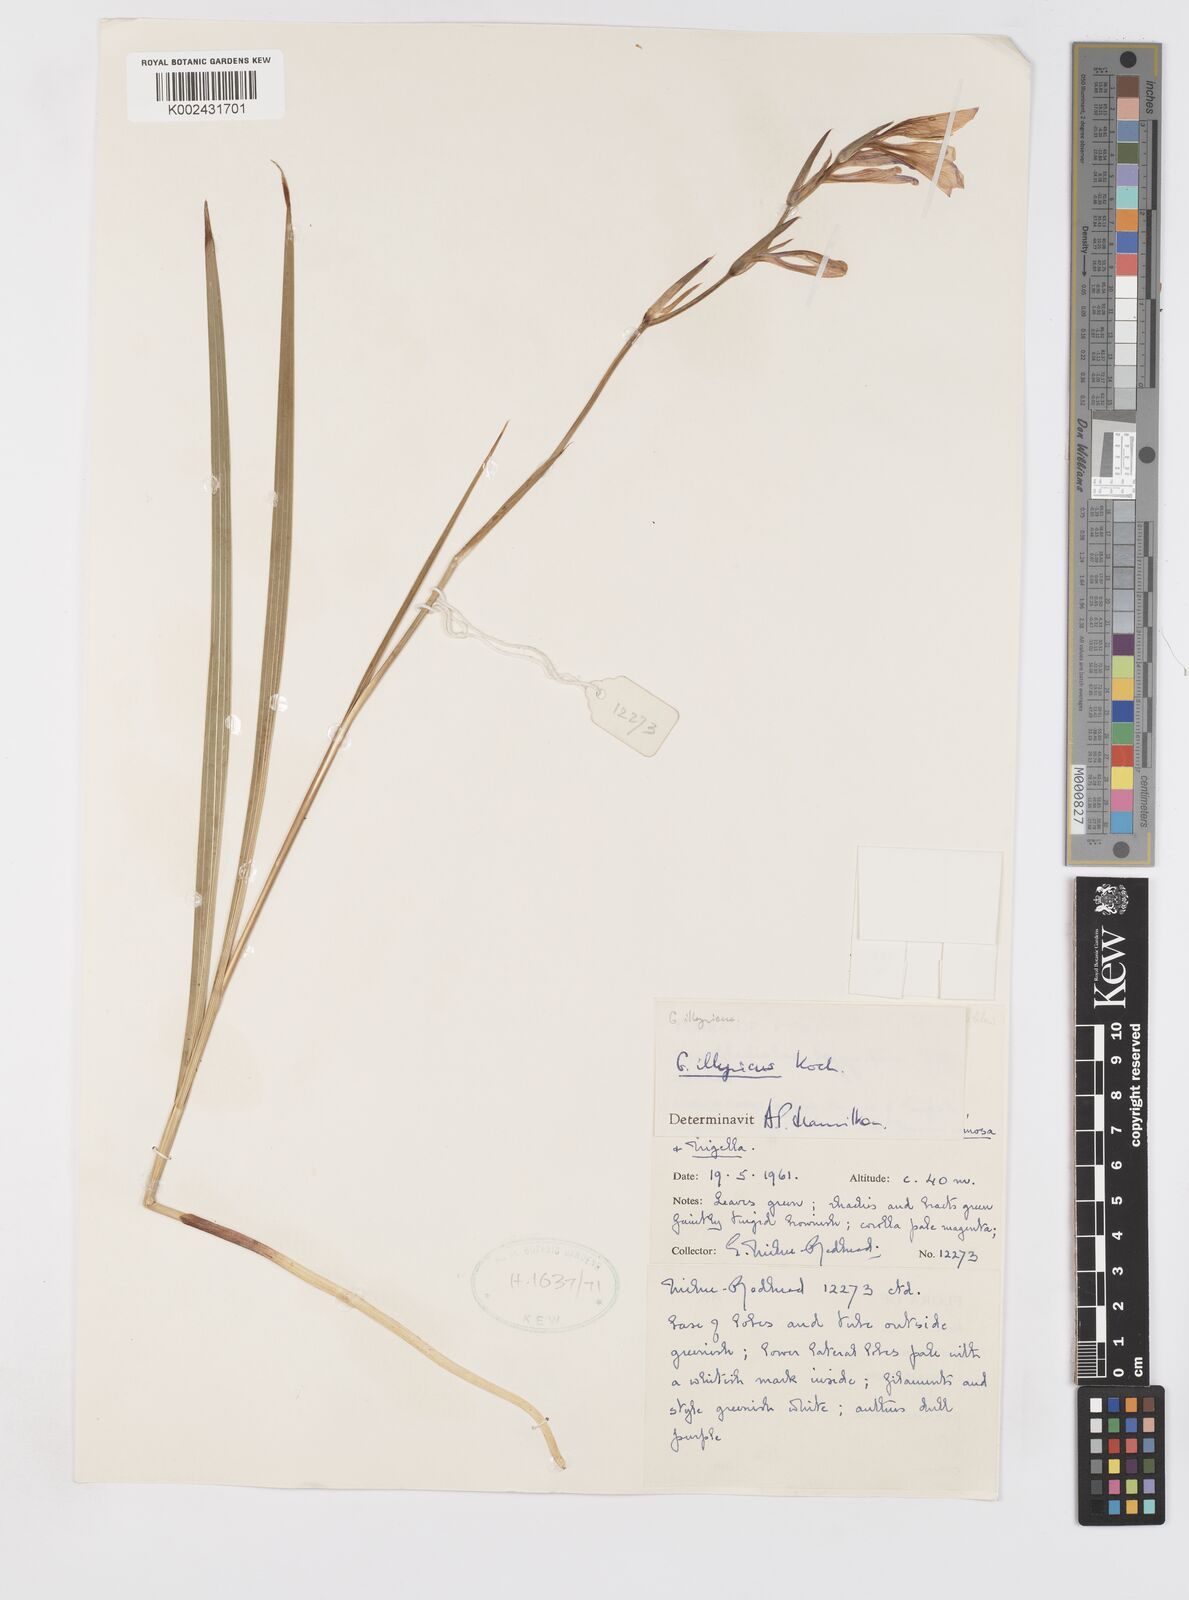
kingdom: Plantae
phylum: Tracheophyta
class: Liliopsida
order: Asparagales
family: Iridaceae
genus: Gladiolus
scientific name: Gladiolus illyricus
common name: Wild gladiolus
